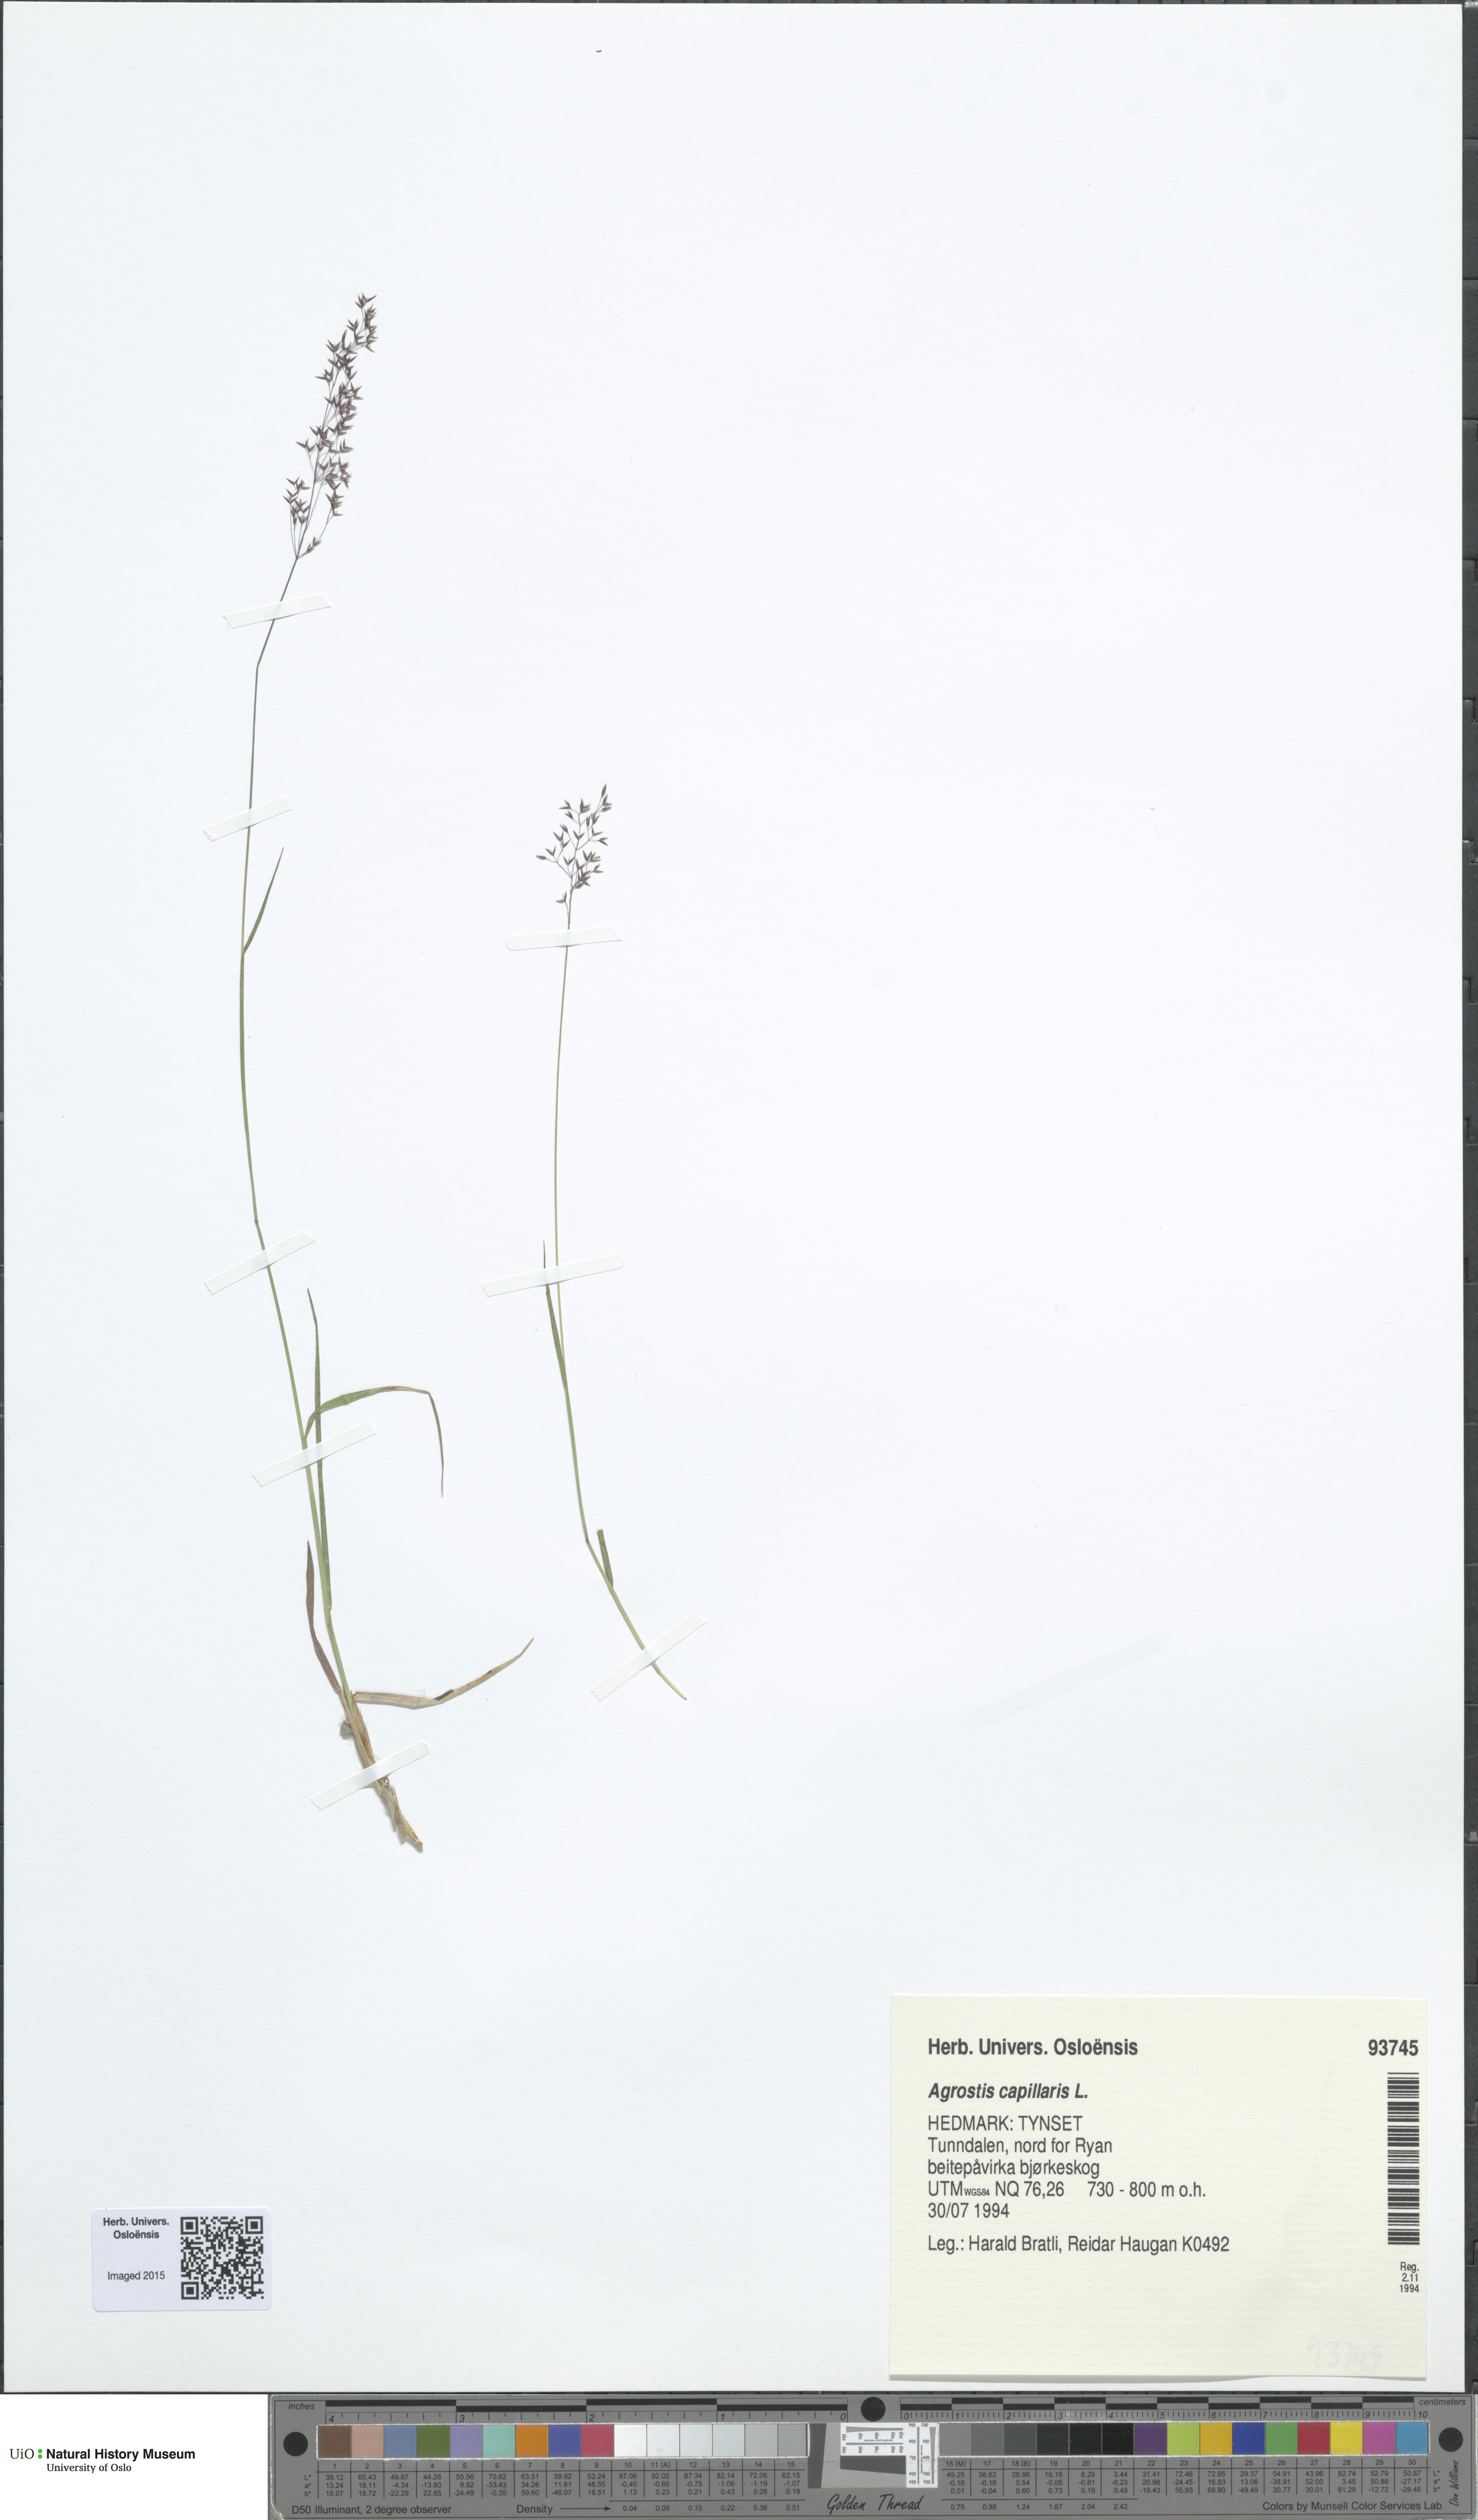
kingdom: Plantae
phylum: Tracheophyta
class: Liliopsida
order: Poales
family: Poaceae
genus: Agrostis
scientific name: Agrostis capillaris
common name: Colonial bentgrass
